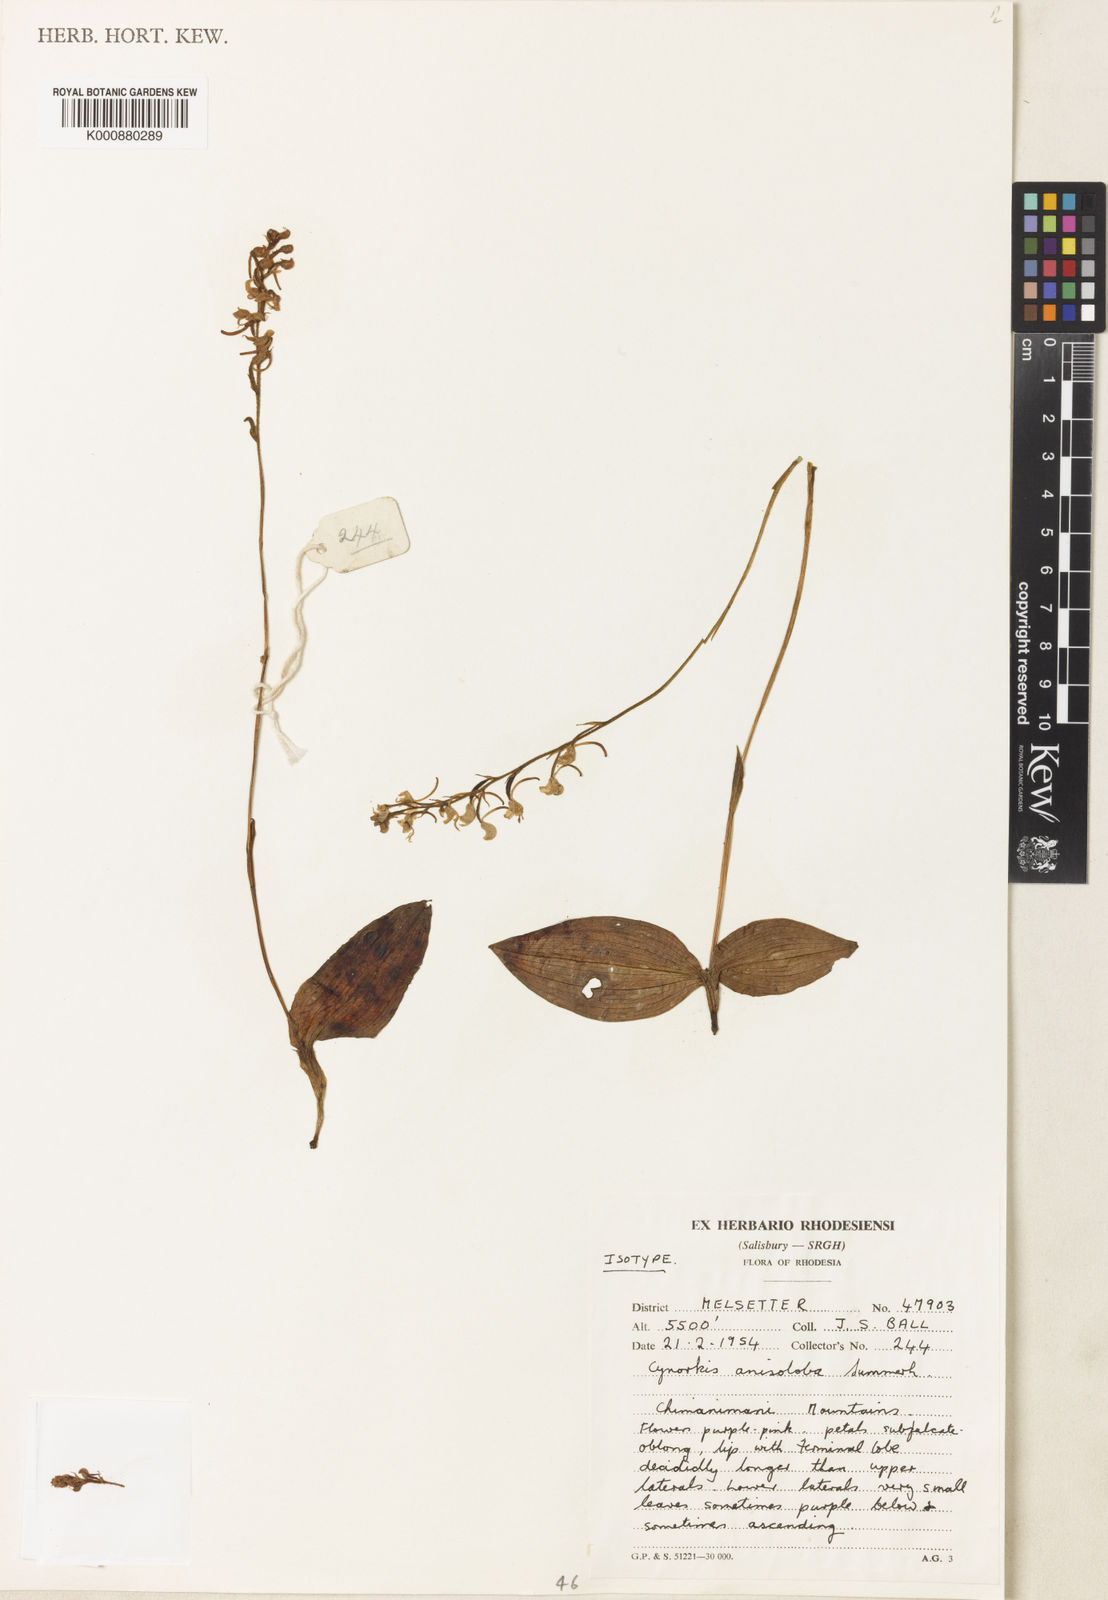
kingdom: Plantae
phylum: Tracheophyta
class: Liliopsida
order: Asparagales
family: Orchidaceae
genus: Cynorkis
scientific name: Cynorkis anisoloba
